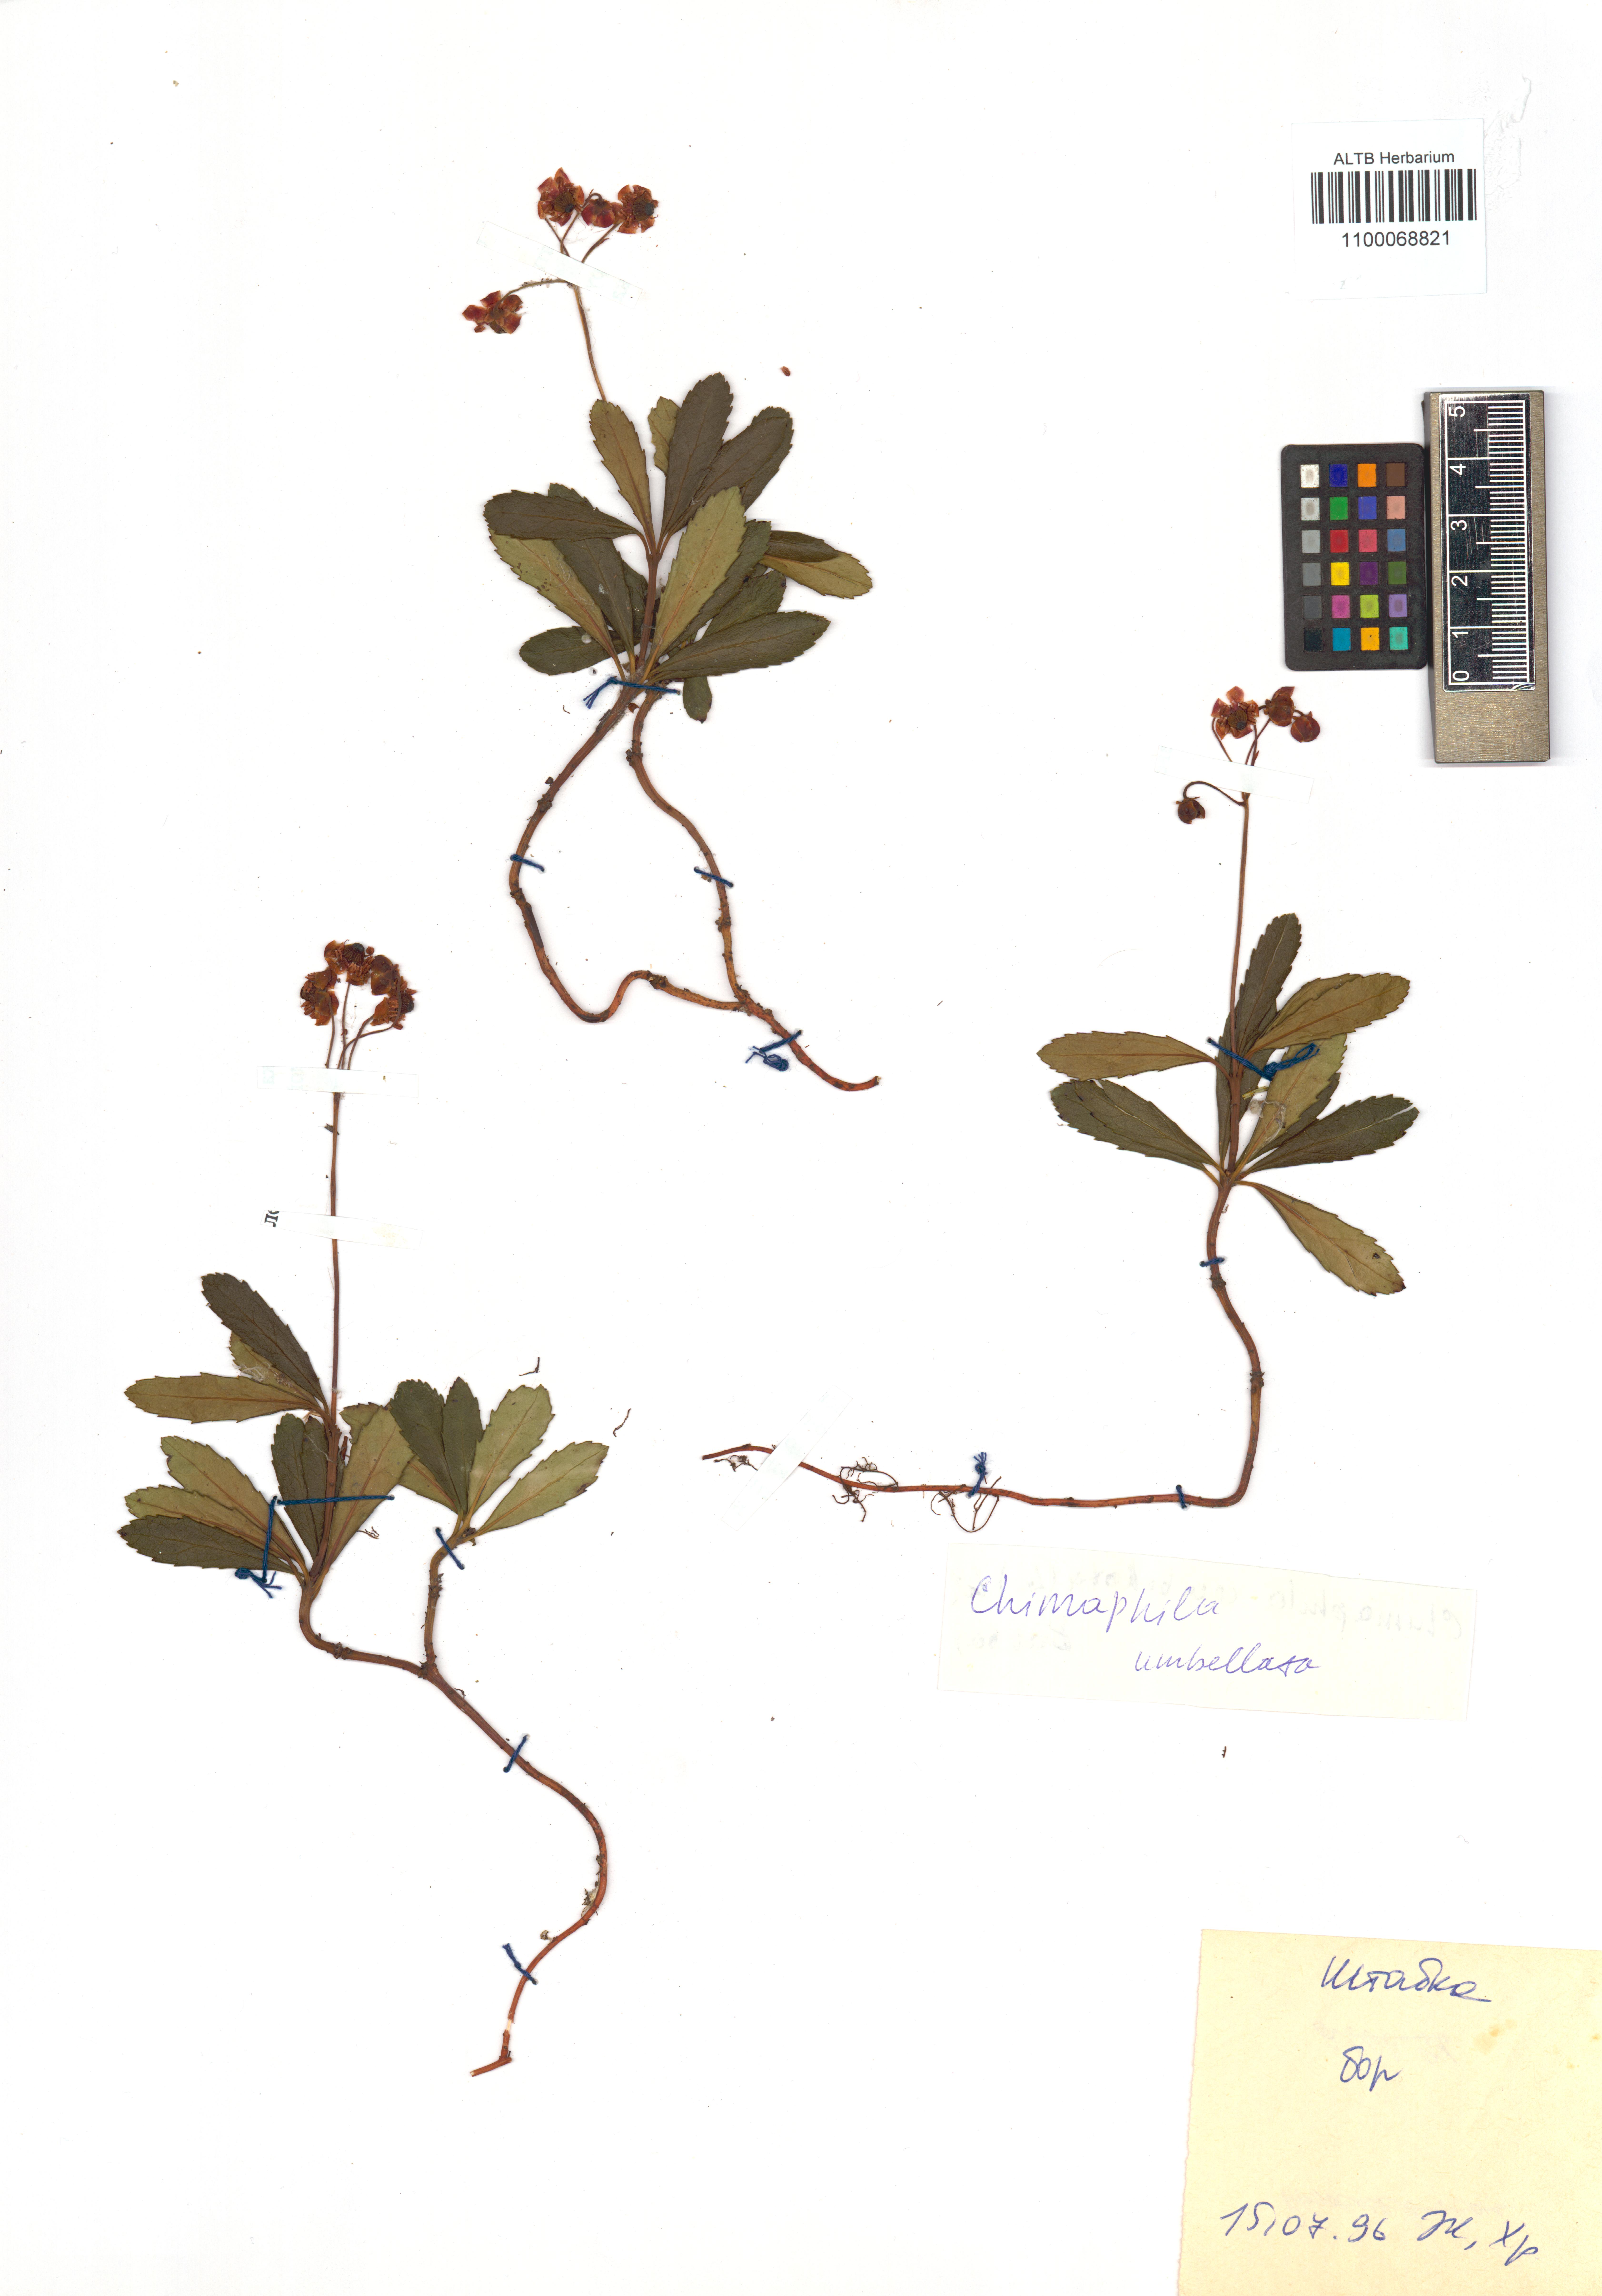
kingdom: Plantae
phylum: Tracheophyta
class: Magnoliopsida
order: Ericales
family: Ericaceae
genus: Chimaphila
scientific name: Chimaphila umbellata
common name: Pipsissewa
